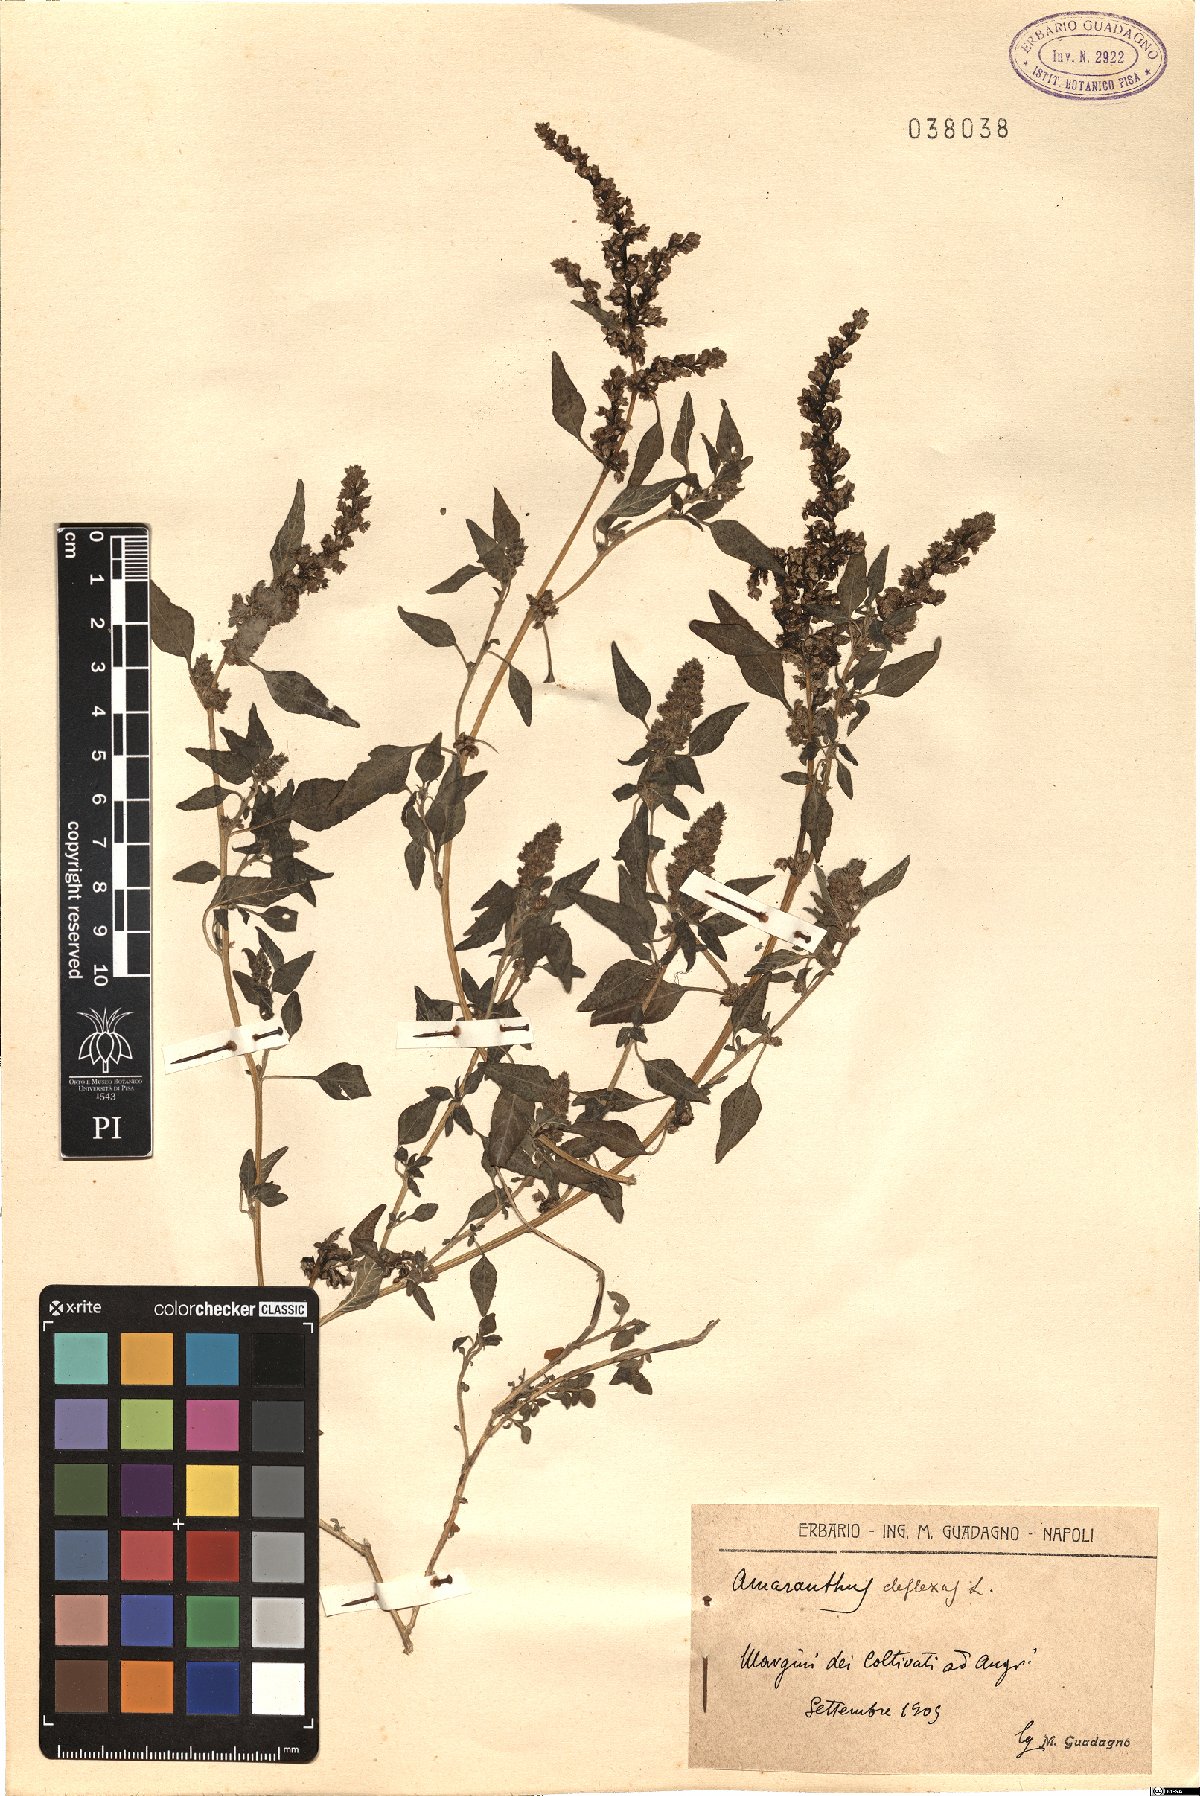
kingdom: Plantae
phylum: Tracheophyta
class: Magnoliopsida
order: Caryophyllales
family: Amaranthaceae
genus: Amaranthus
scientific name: Amaranthus deflexus
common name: Perennial pigweed
